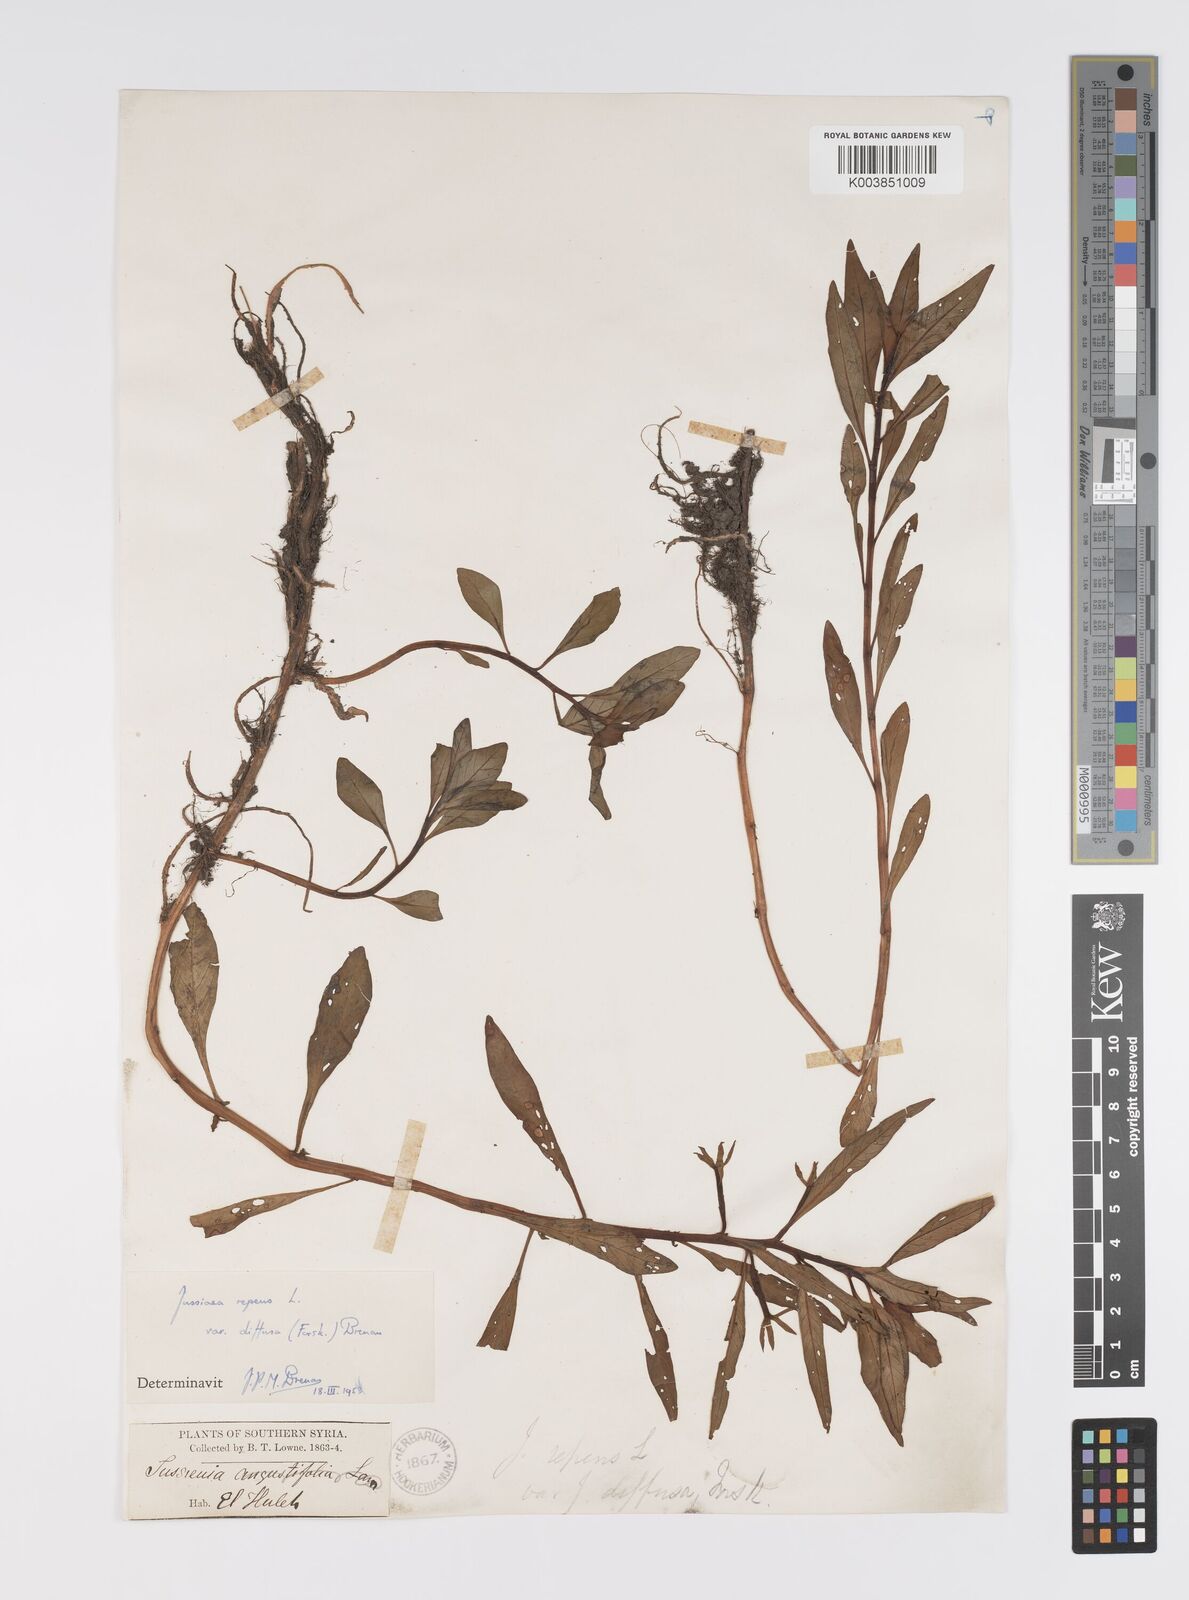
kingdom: Plantae
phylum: Tracheophyta
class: Magnoliopsida
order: Myrtales
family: Onagraceae
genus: Ludwigia
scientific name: Ludwigia adscendens
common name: Creeping water primrose
